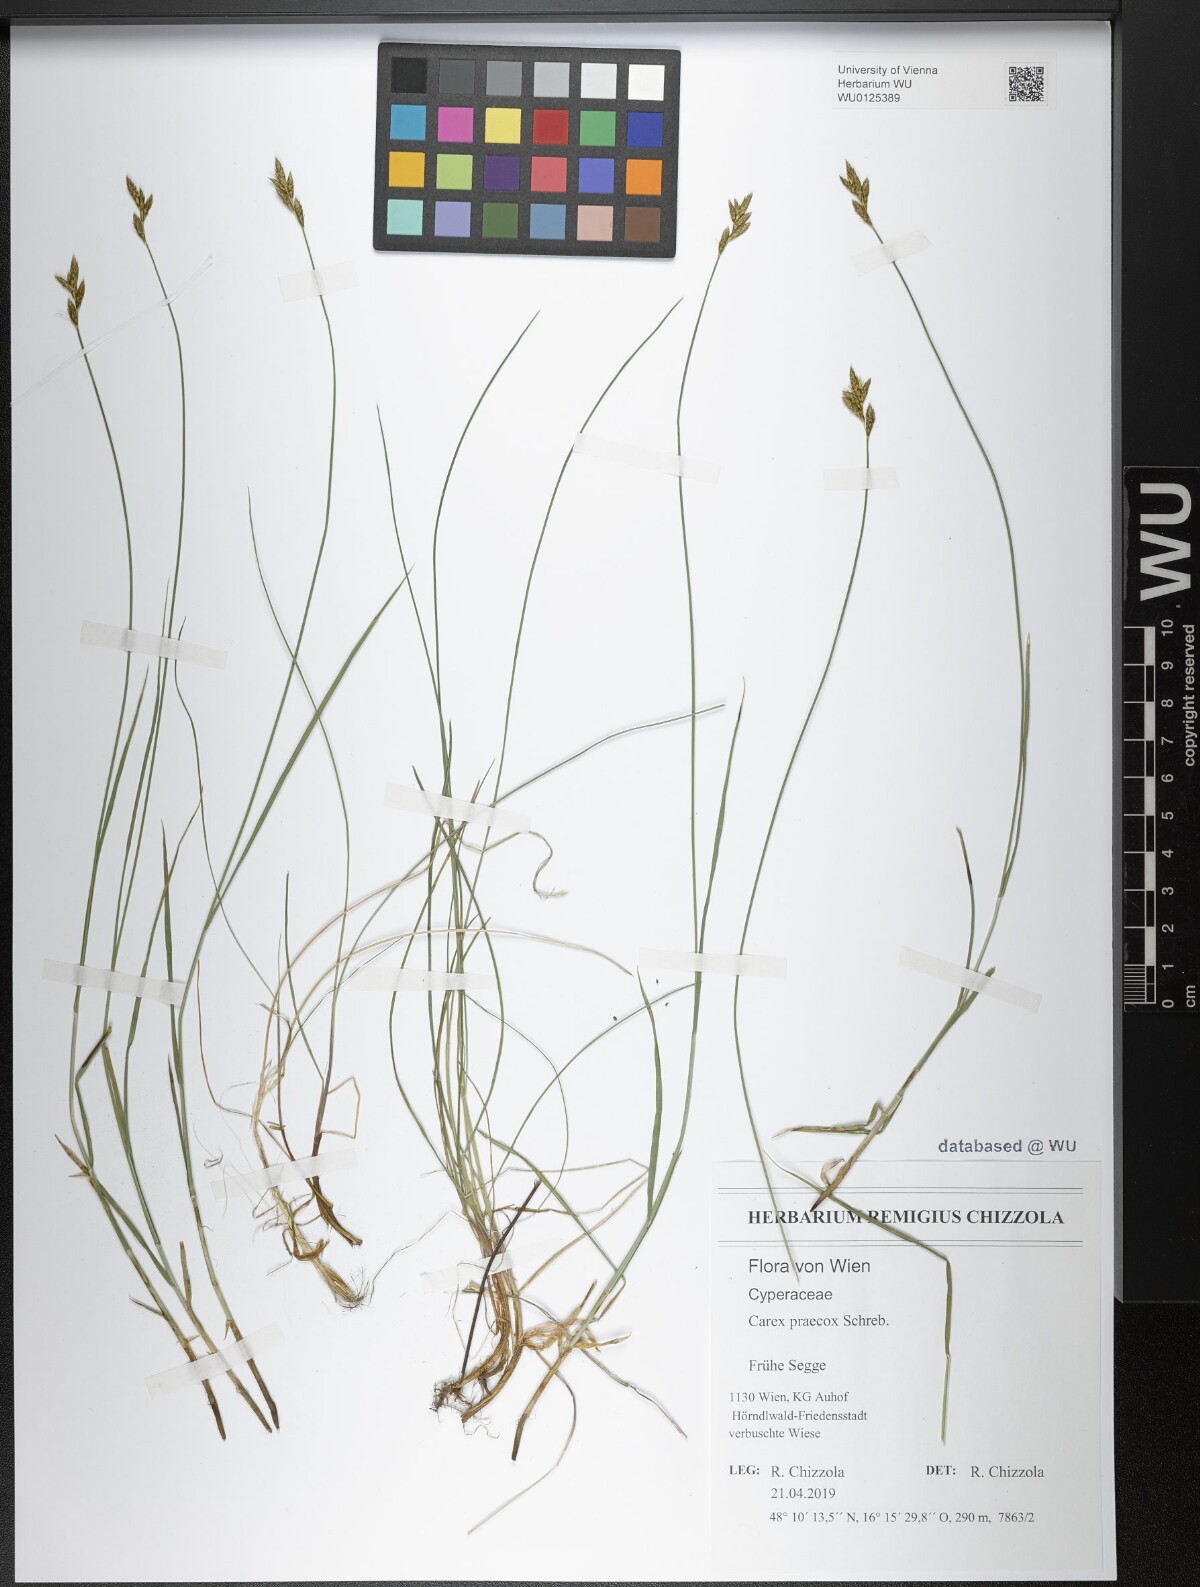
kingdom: Plantae
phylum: Tracheophyta
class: Liliopsida
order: Poales
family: Cyperaceae
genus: Carex
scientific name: Carex praecox
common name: Early sedge
